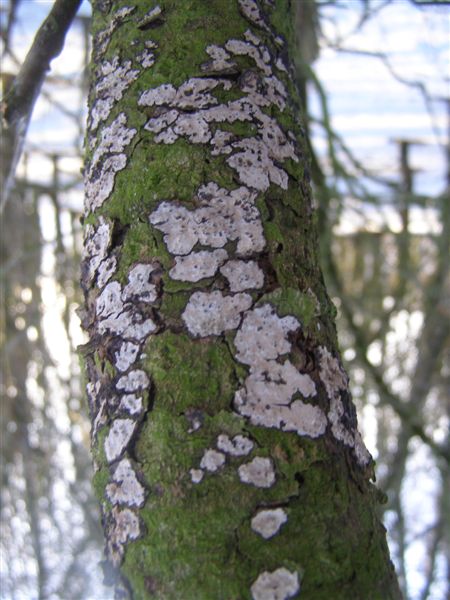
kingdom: Fungi
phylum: Basidiomycota
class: Agaricomycetes
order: Russulales
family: Peniophoraceae
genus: Peniophora
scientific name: Peniophora polygonia
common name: polygon-voksskind
